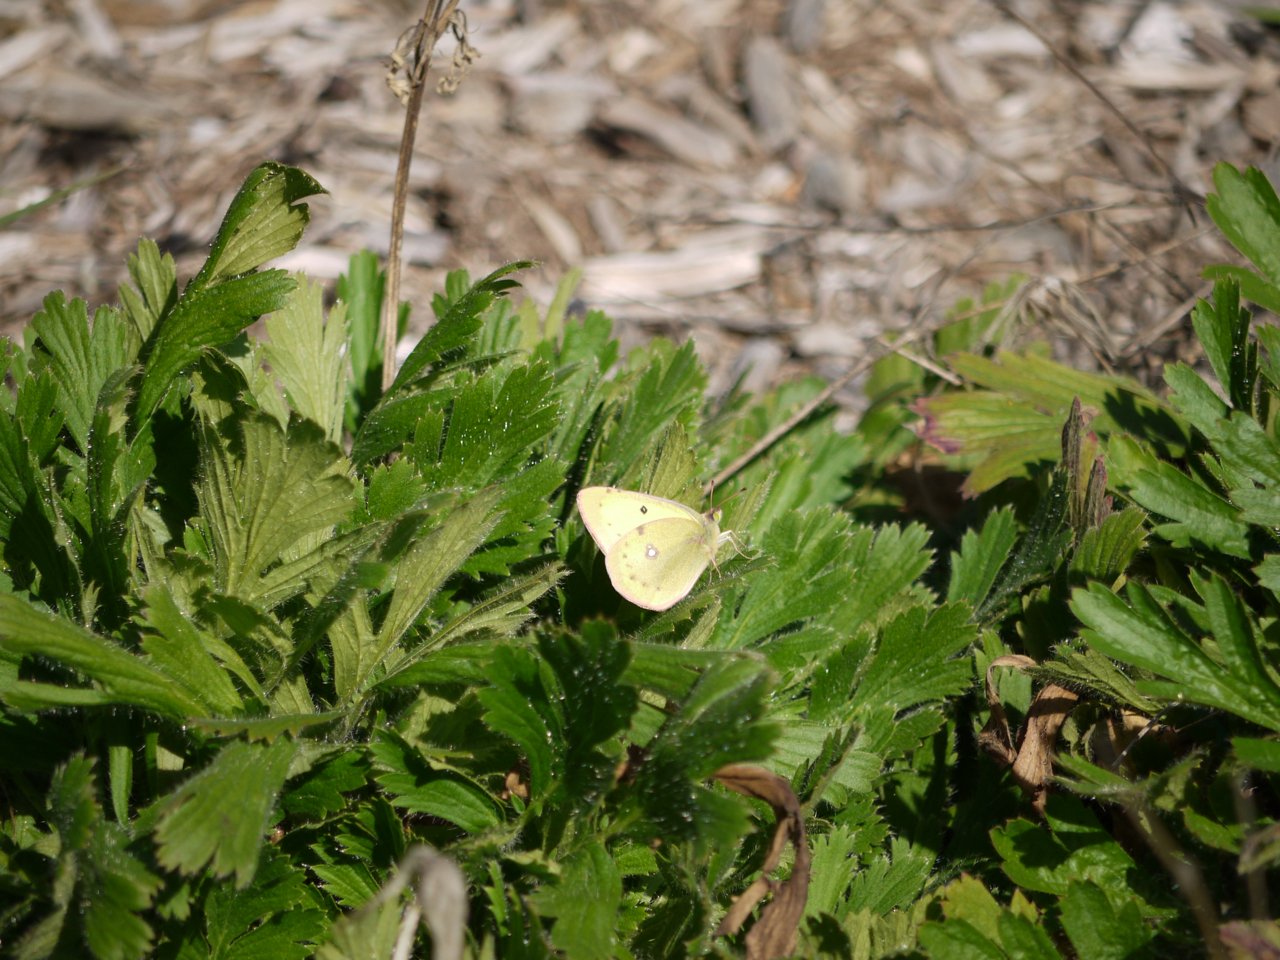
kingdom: Animalia
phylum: Arthropoda
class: Insecta
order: Lepidoptera
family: Pieridae
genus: Colias
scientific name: Colias philodice
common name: Clouded Sulphur
